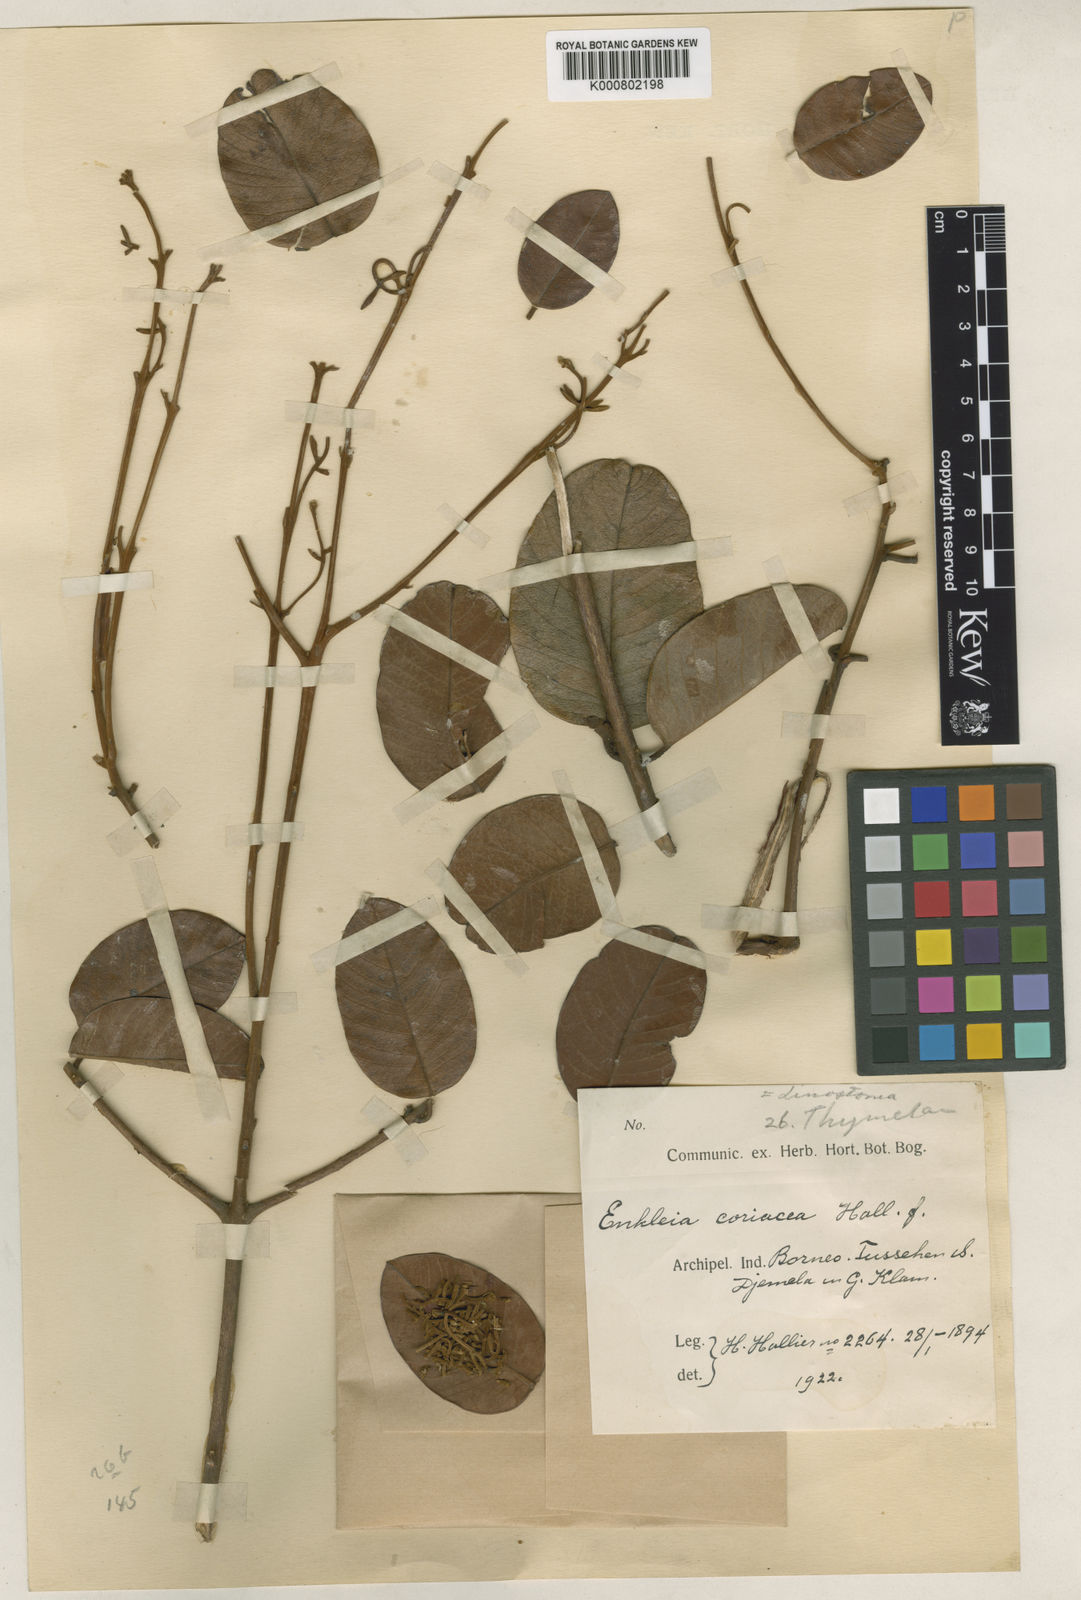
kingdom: Plantae
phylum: Tracheophyta
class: Magnoliopsida
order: Malvales
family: Thymelaeaceae
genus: Enkleia
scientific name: Enkleia malaccensis
